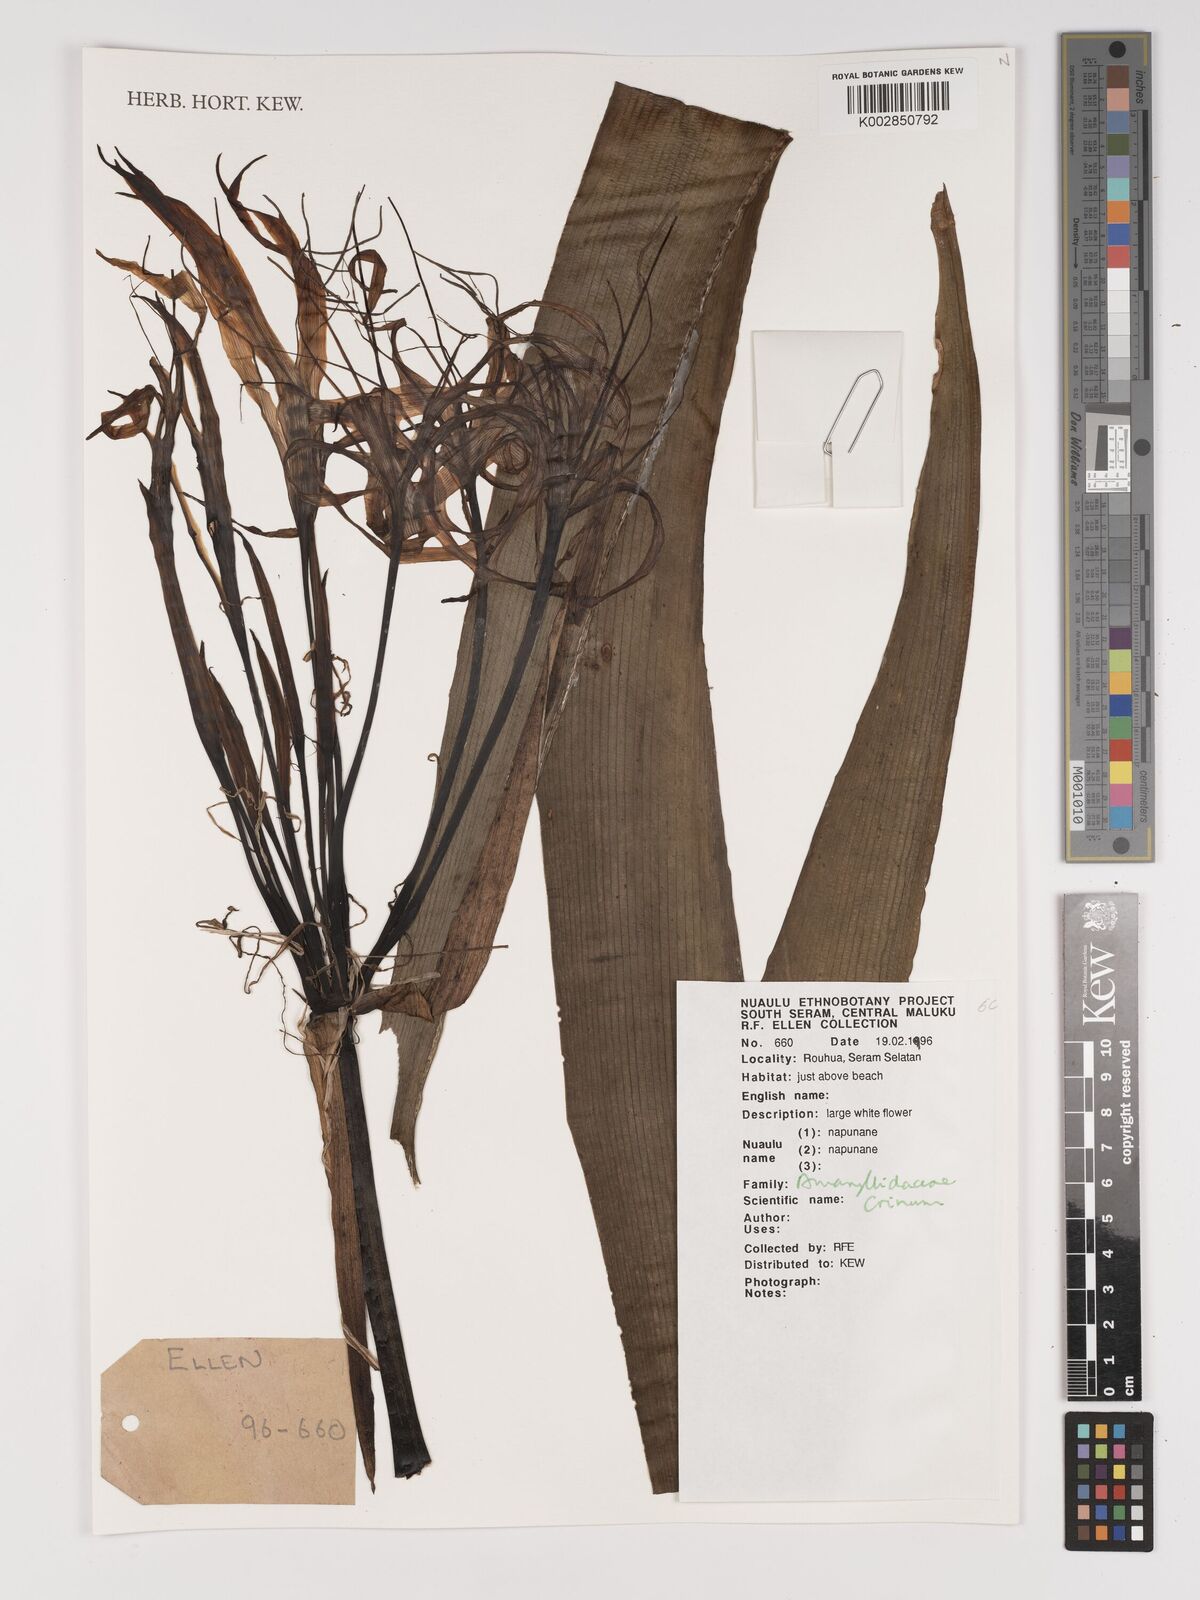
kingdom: Plantae
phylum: Tracheophyta
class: Liliopsida
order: Asparagales
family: Amaryllidaceae
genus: Crinum
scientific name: Crinum
